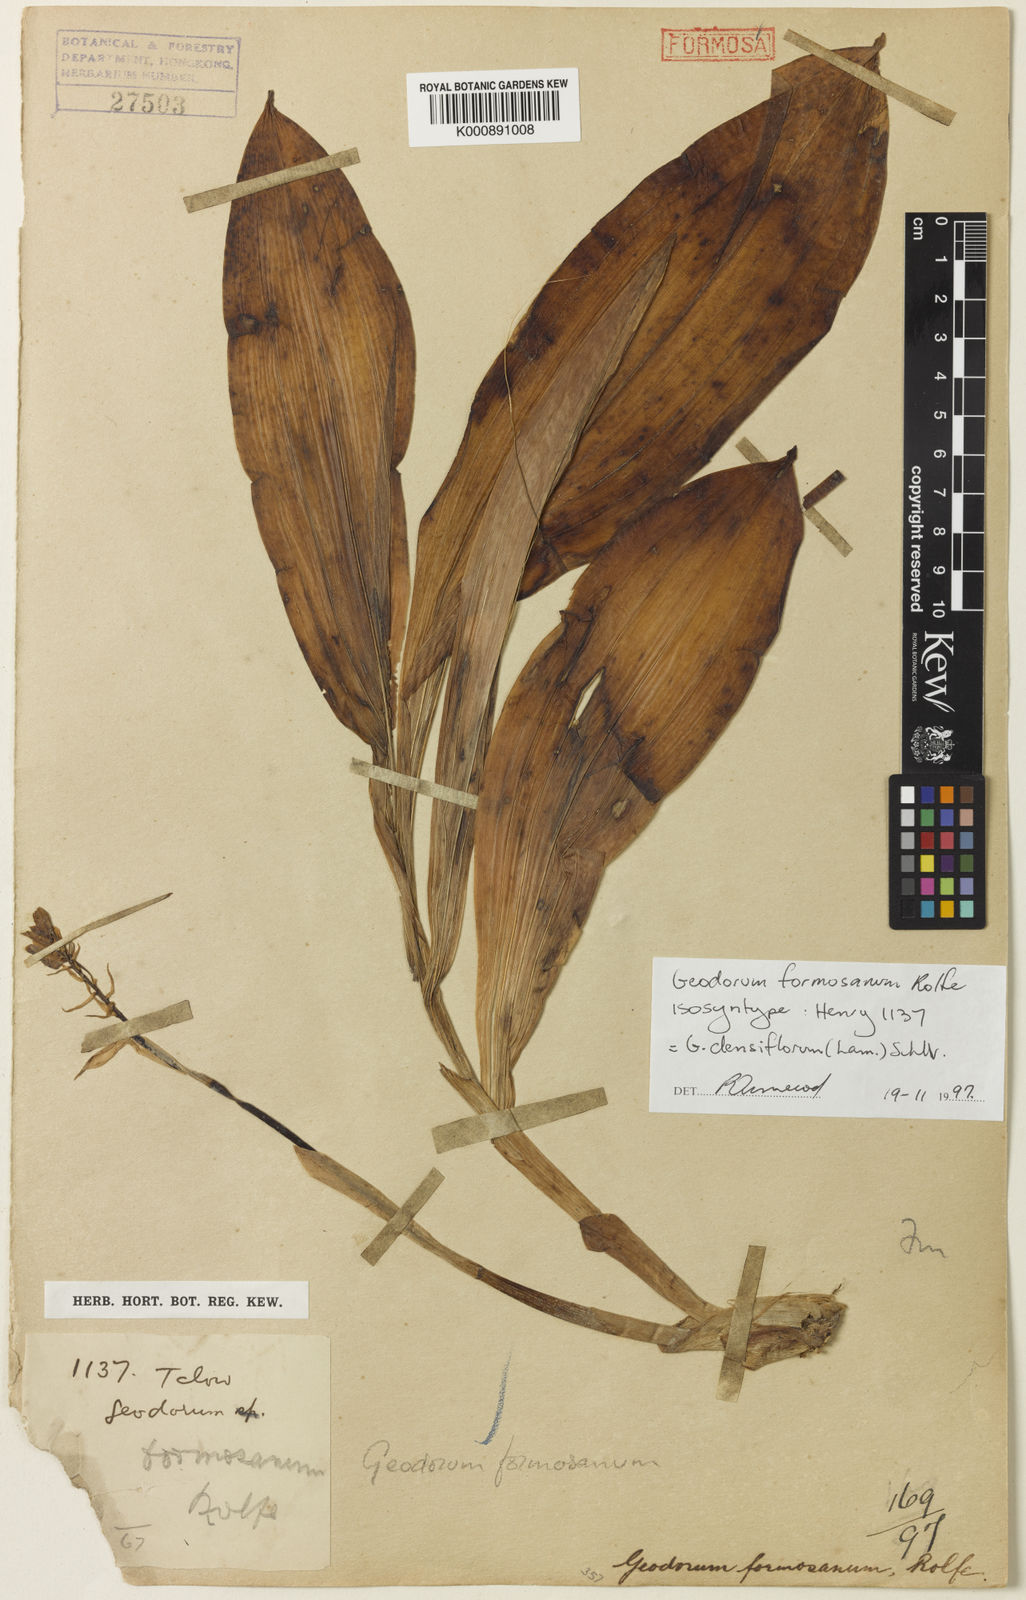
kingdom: Plantae
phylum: Tracheophyta
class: Liliopsida
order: Asparagales
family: Orchidaceae
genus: Eulophia
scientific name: Eulophia cernua
